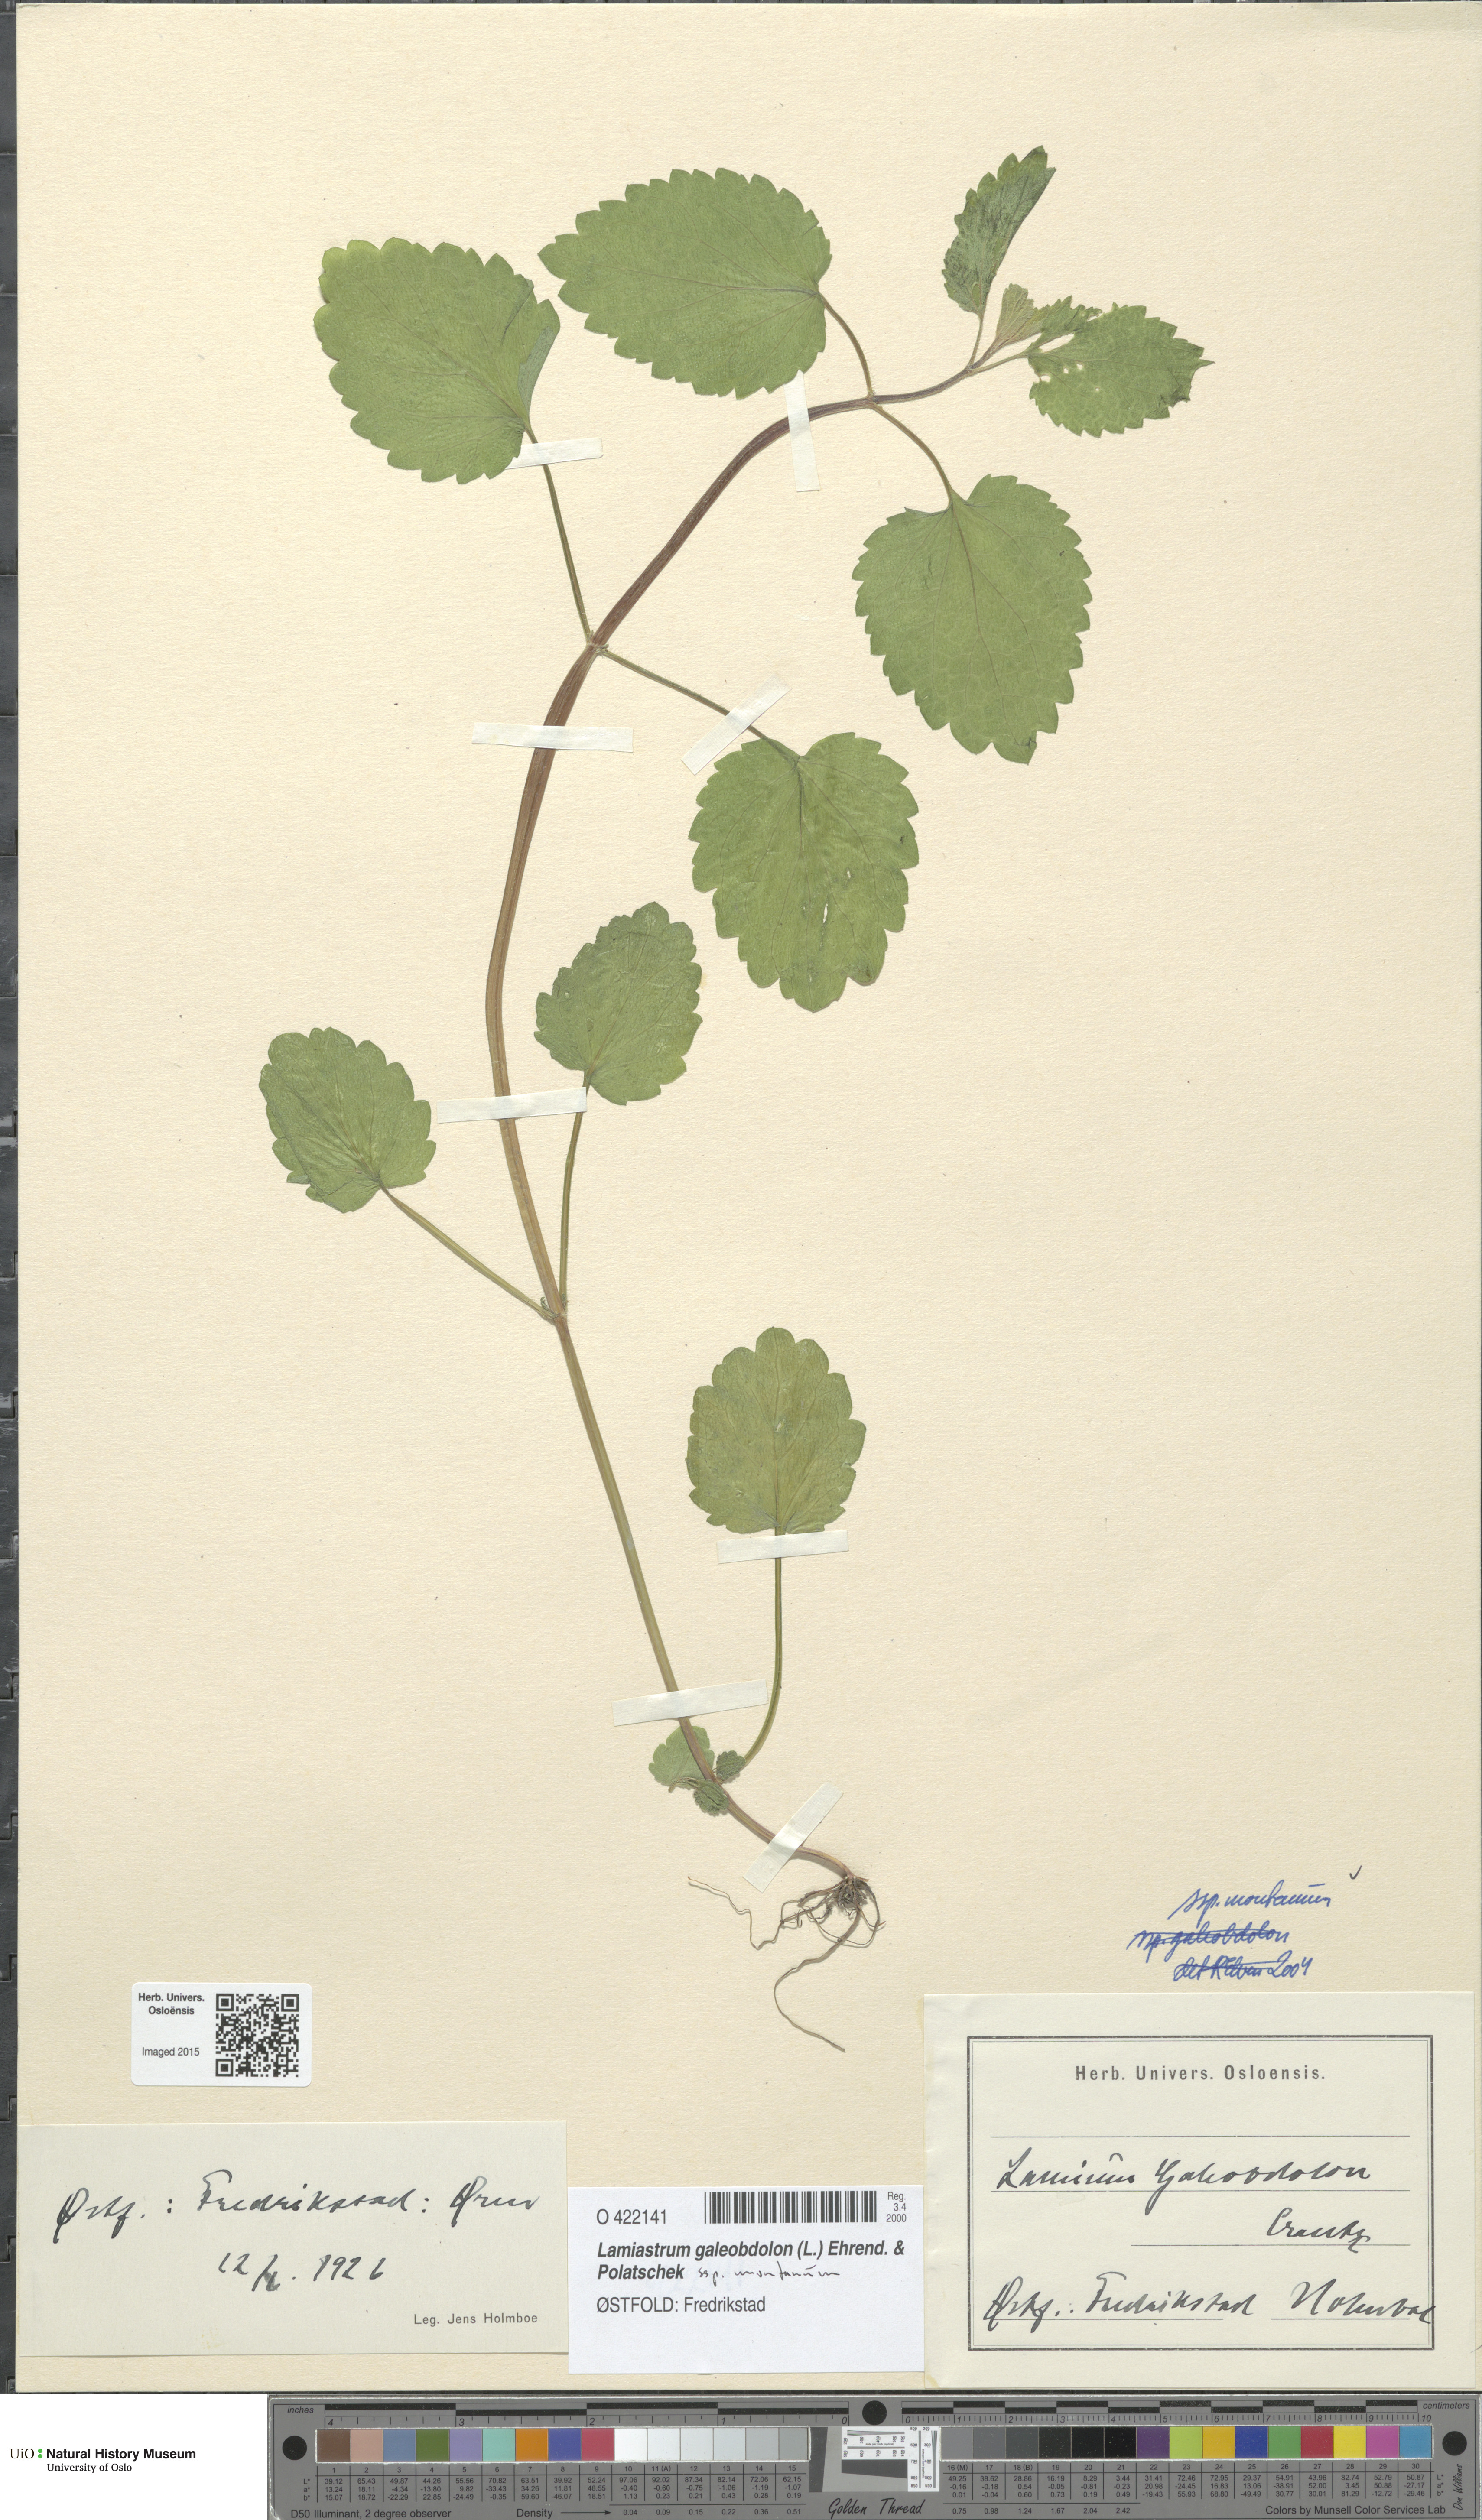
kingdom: Plantae
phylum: Tracheophyta
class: Magnoliopsida
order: Lamiales
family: Lamiaceae
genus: Lamium
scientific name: Lamium galeobdolon
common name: Yellow archangel
